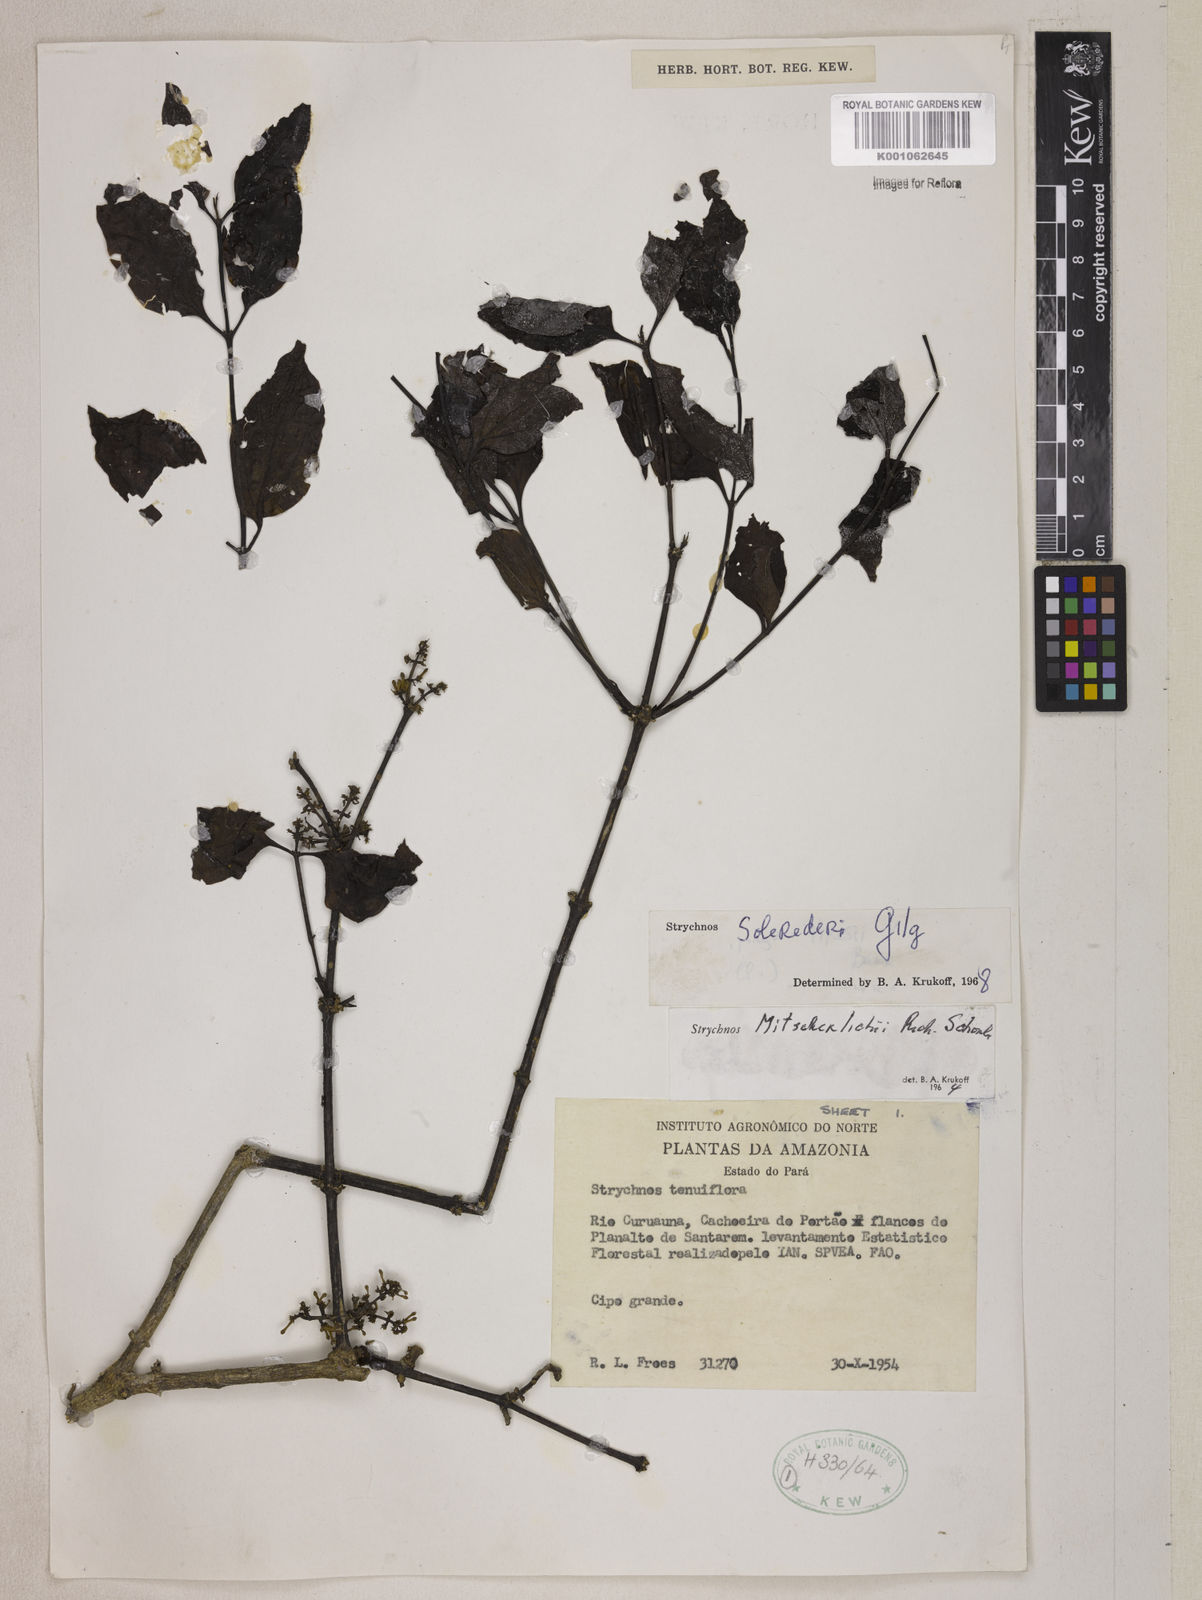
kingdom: Plantae
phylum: Tracheophyta
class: Magnoliopsida
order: Gentianales
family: Loganiaceae
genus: Strychnos
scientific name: Strychnos solerederi
